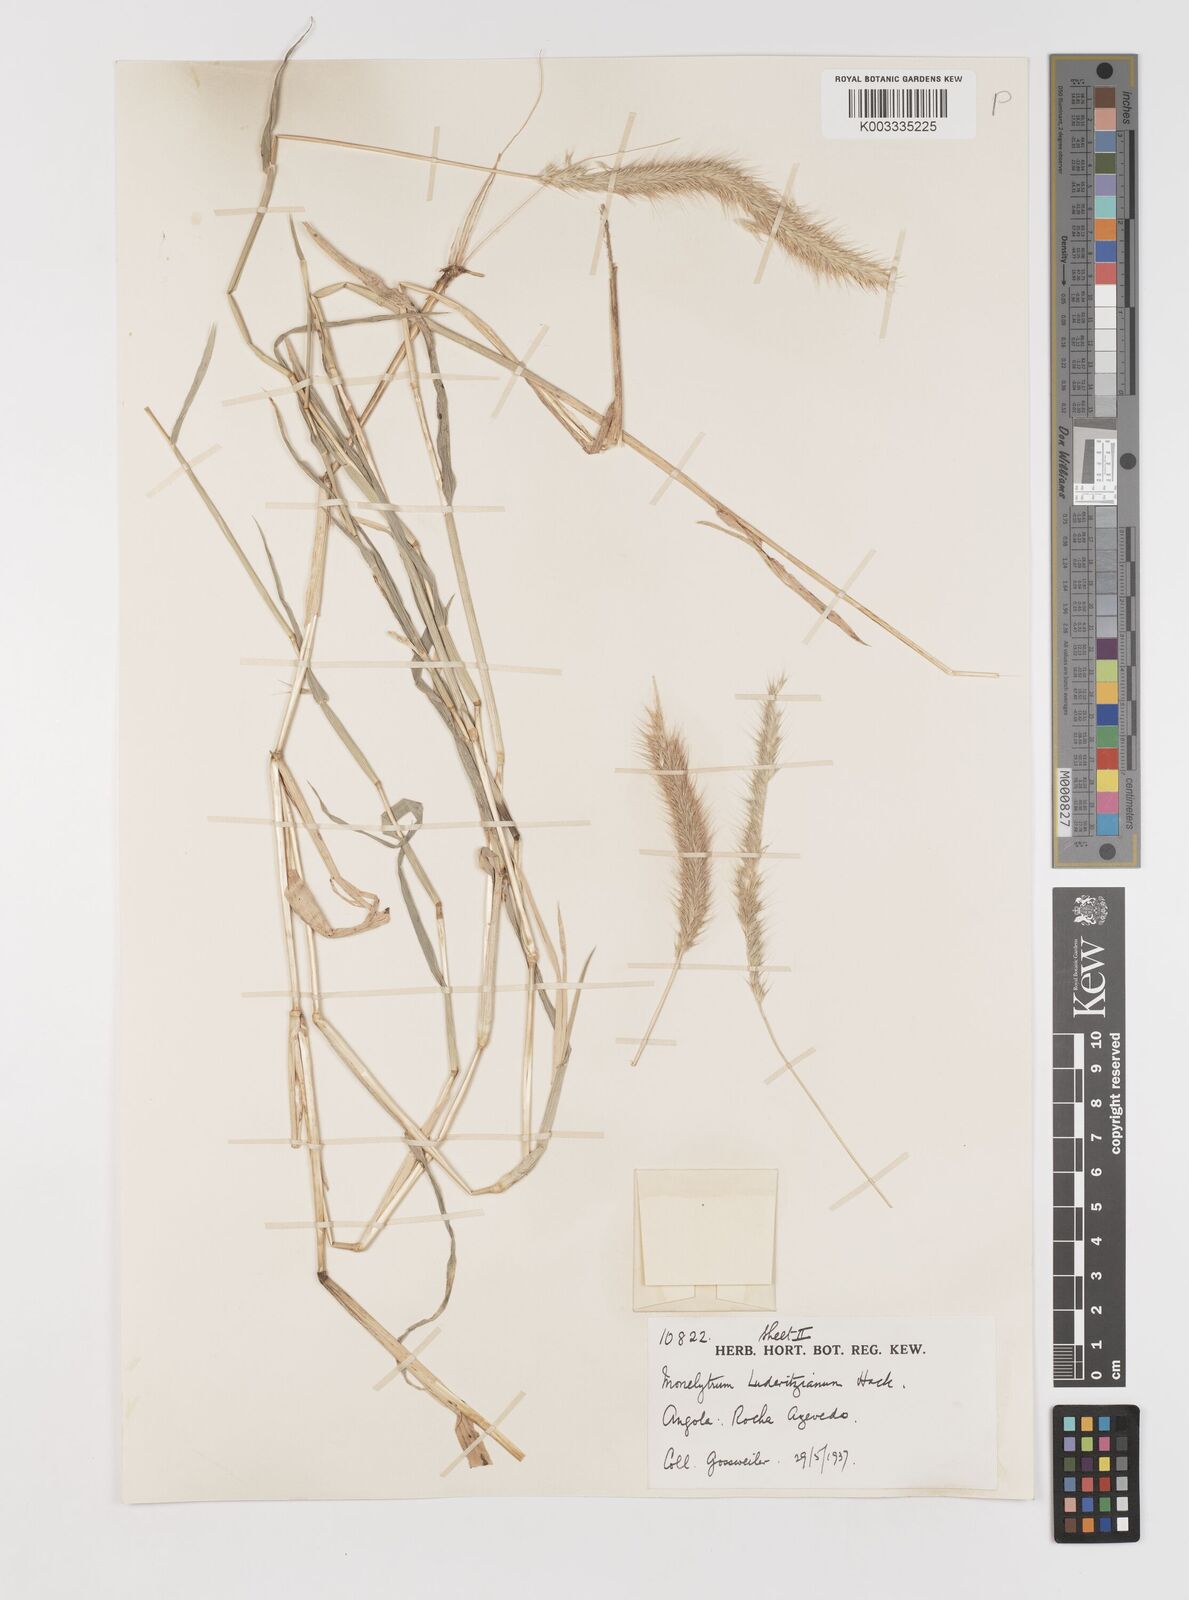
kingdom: Plantae
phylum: Tracheophyta
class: Liliopsida
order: Poales
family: Poaceae
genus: Monelytrum
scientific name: Monelytrum luederitzianum
